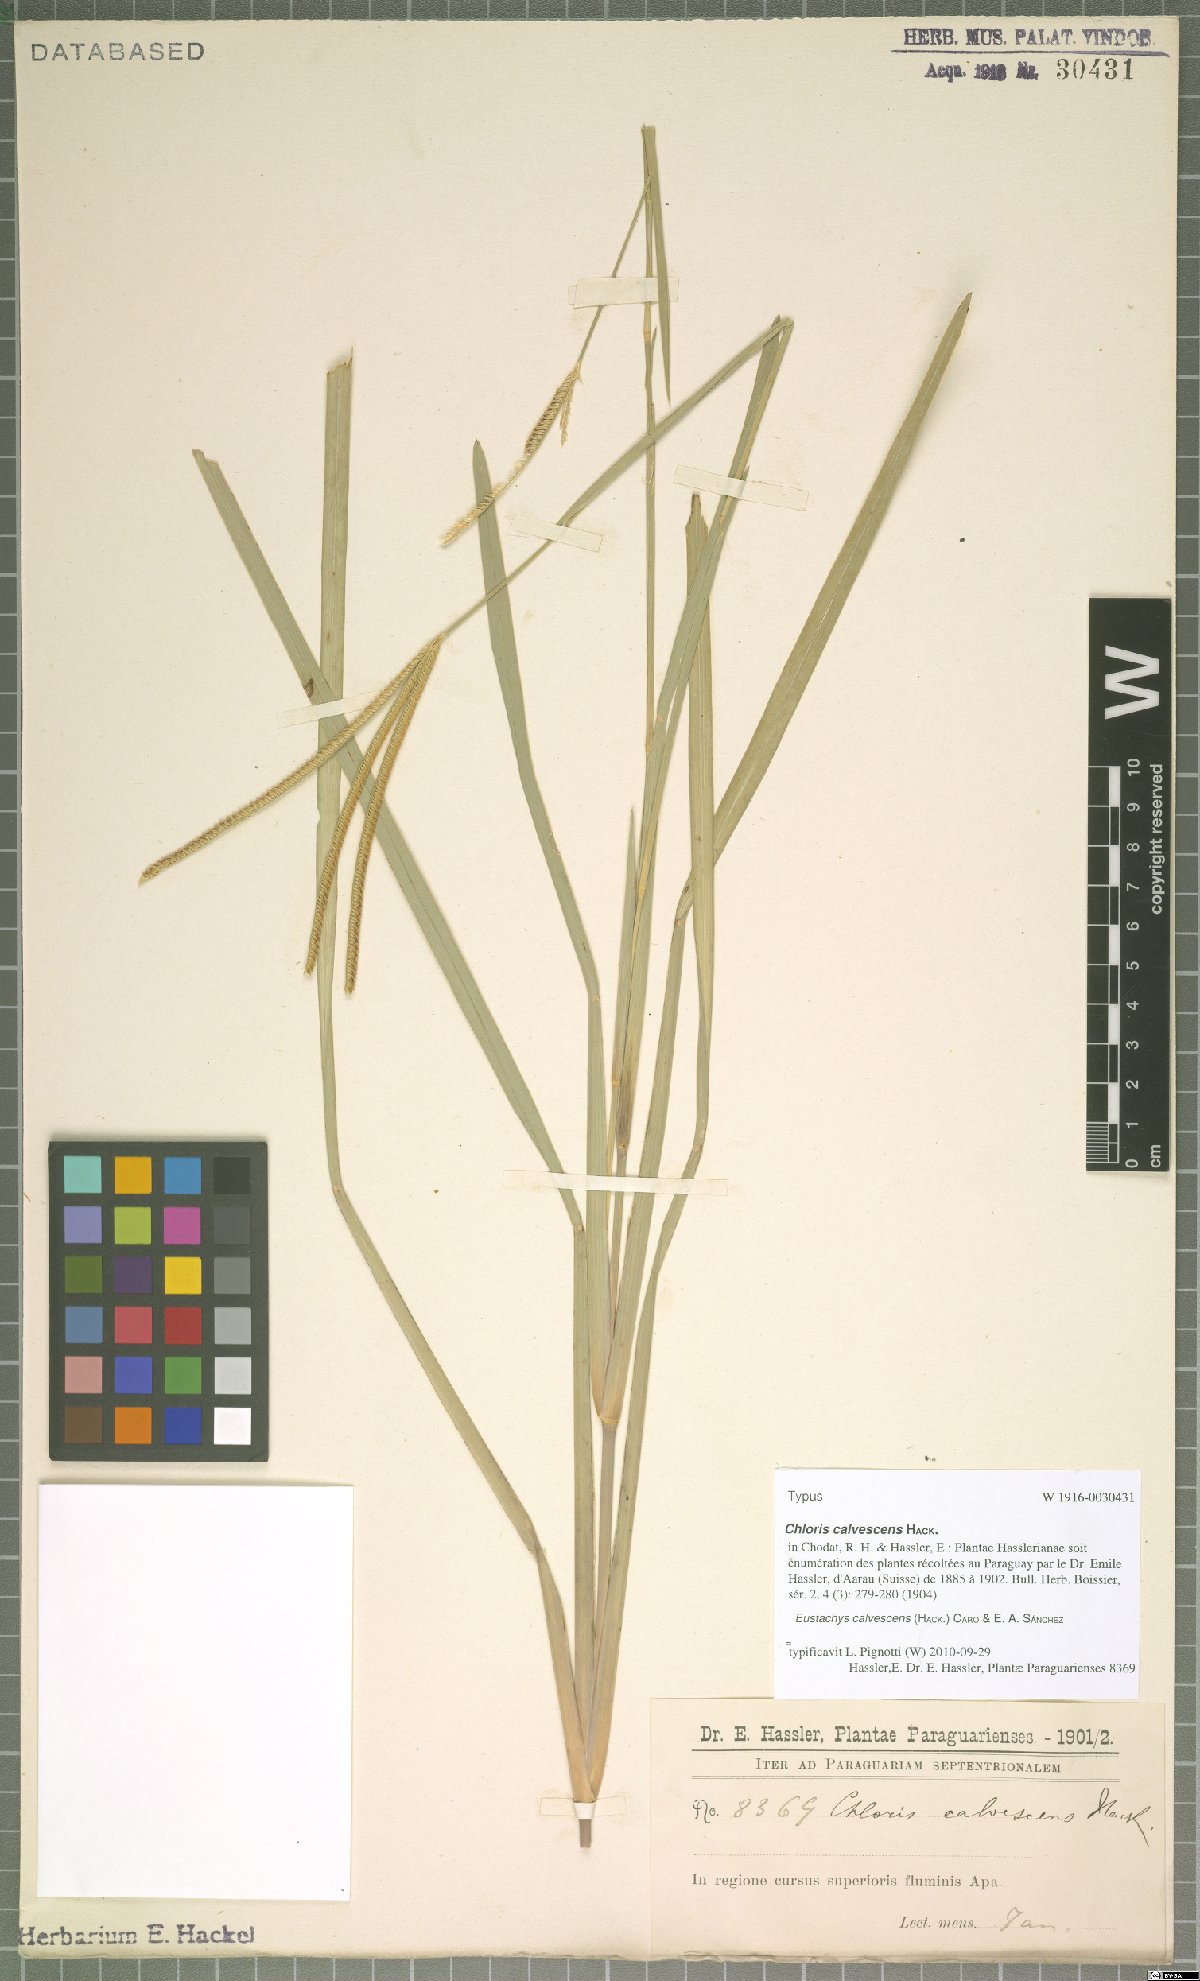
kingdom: Plantae
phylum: Tracheophyta
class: Liliopsida
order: Poales
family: Poaceae
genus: Eustachys
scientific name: Eustachys calvescens
